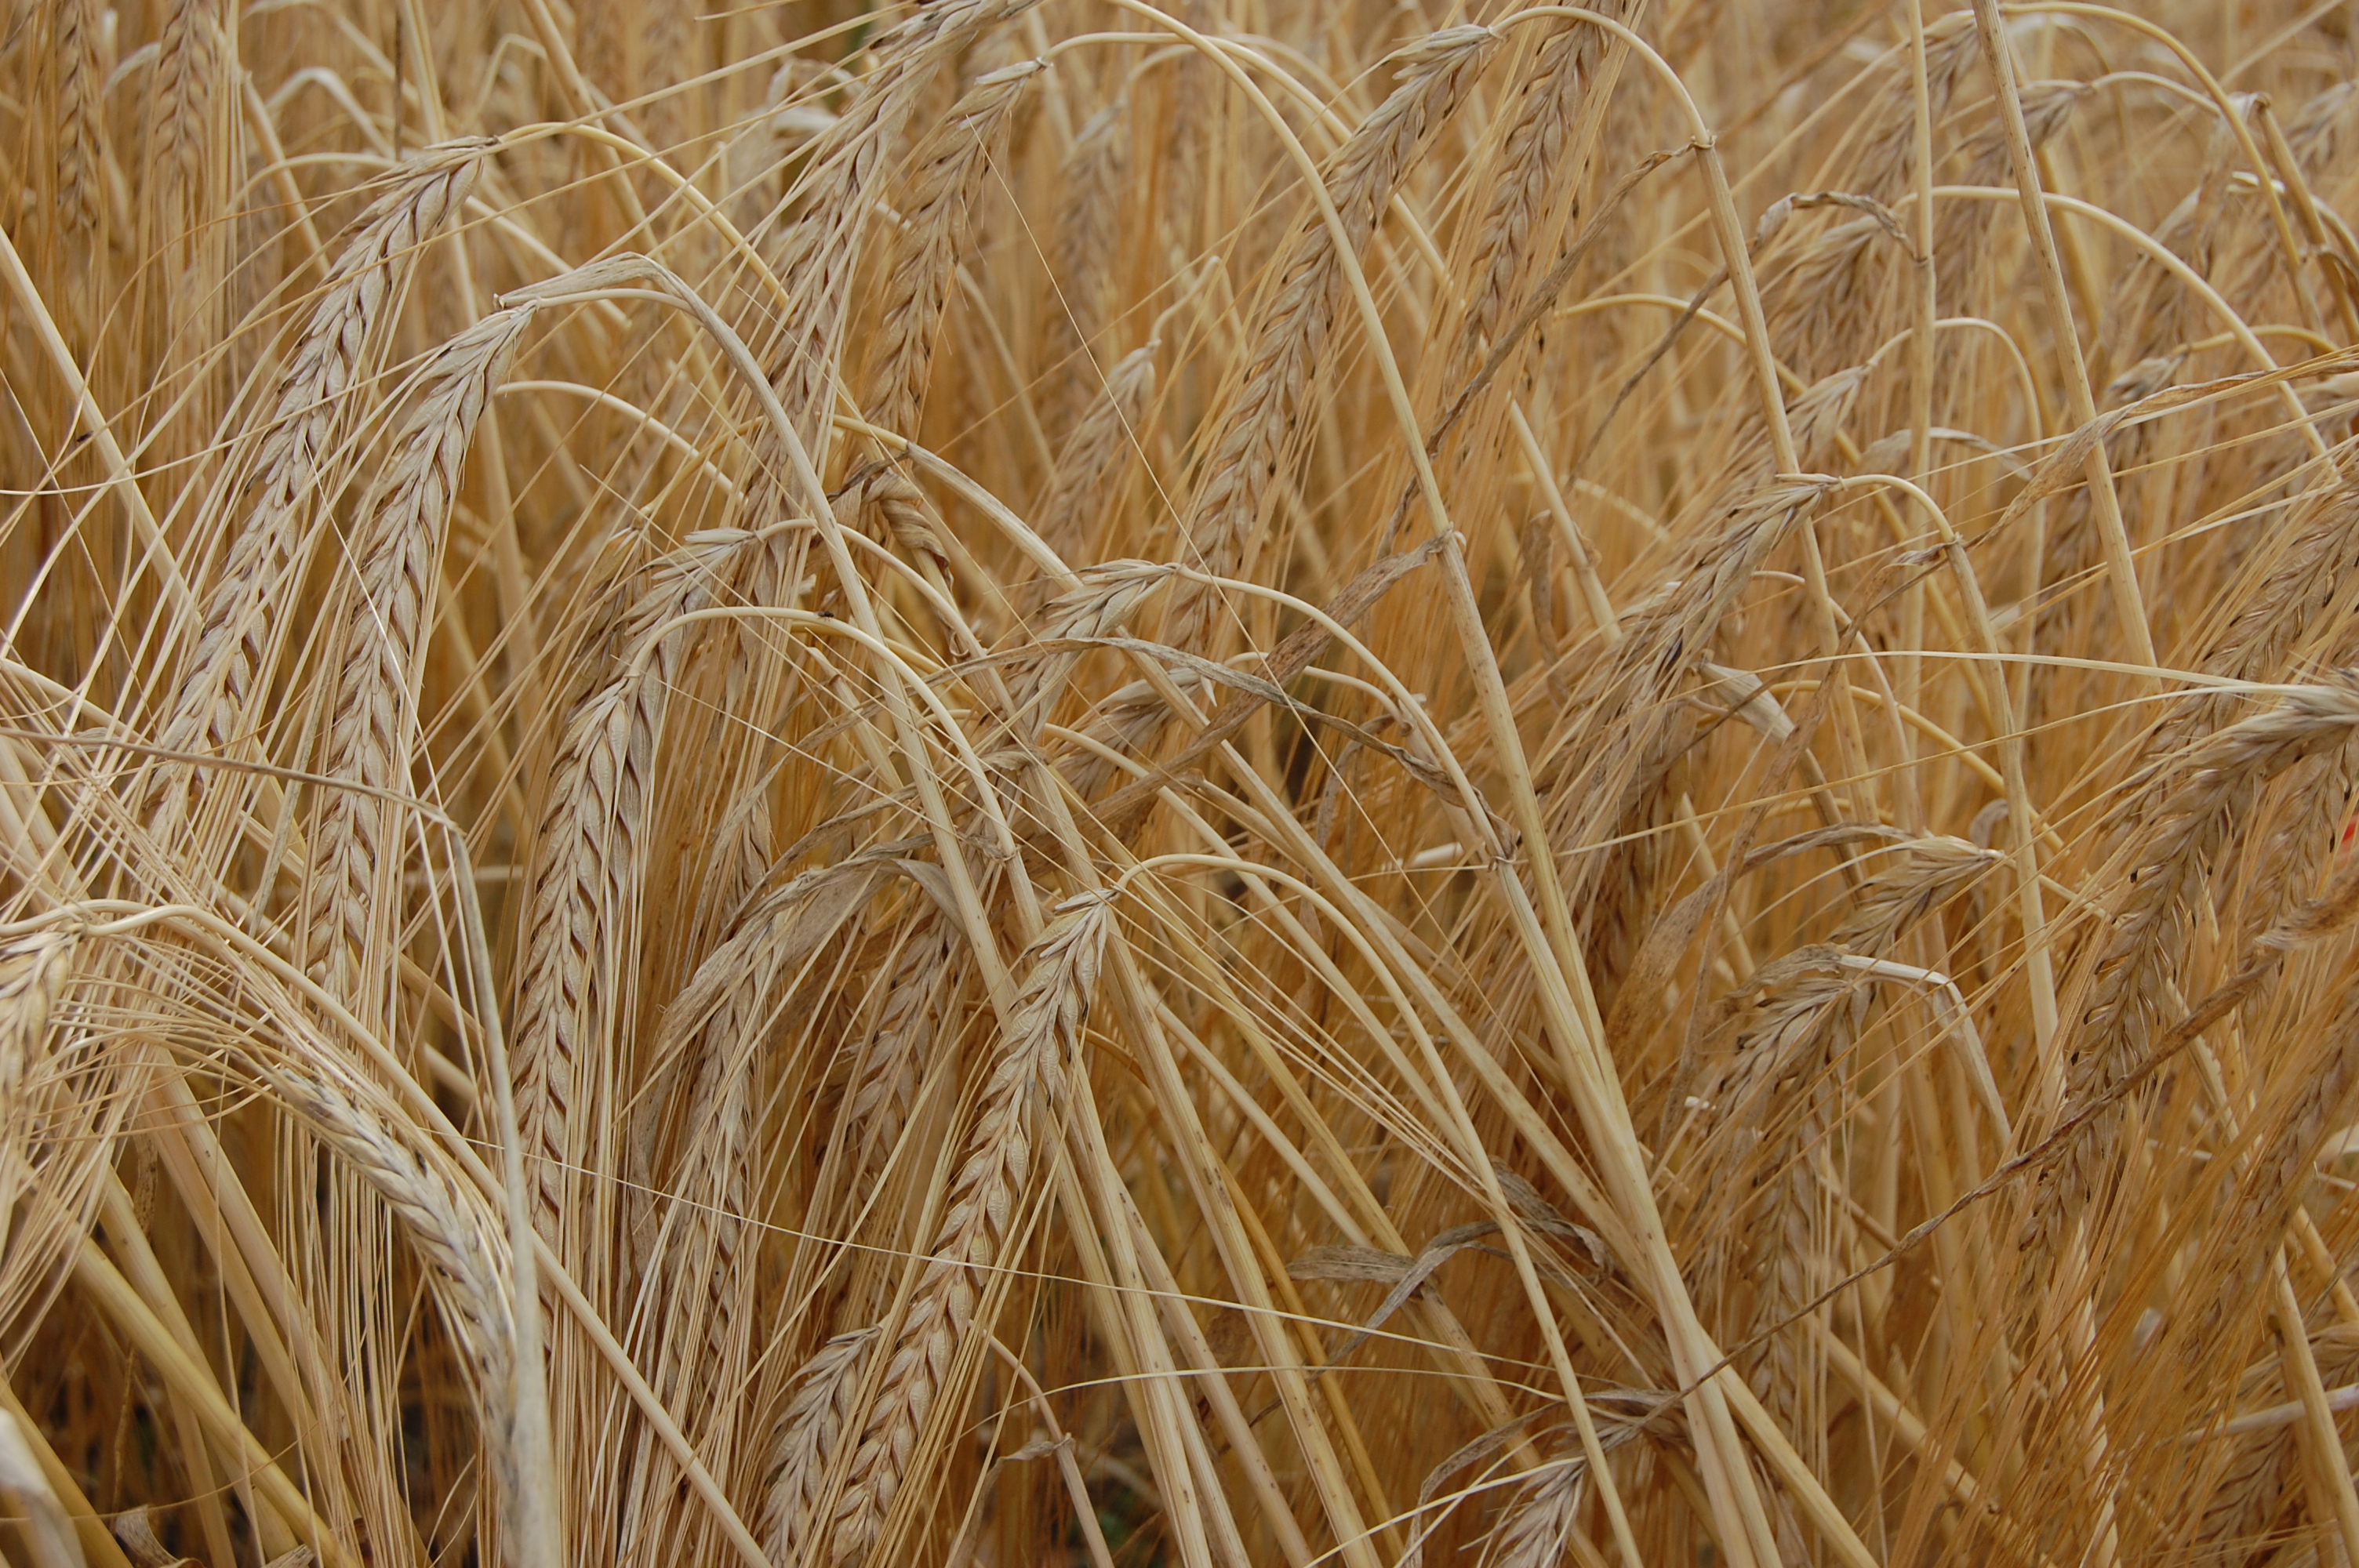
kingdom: Plantae
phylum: Tracheophyta
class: Liliopsida
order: Poales
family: Poaceae
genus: Hordeum
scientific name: Hordeum vulgare
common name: Common barley
